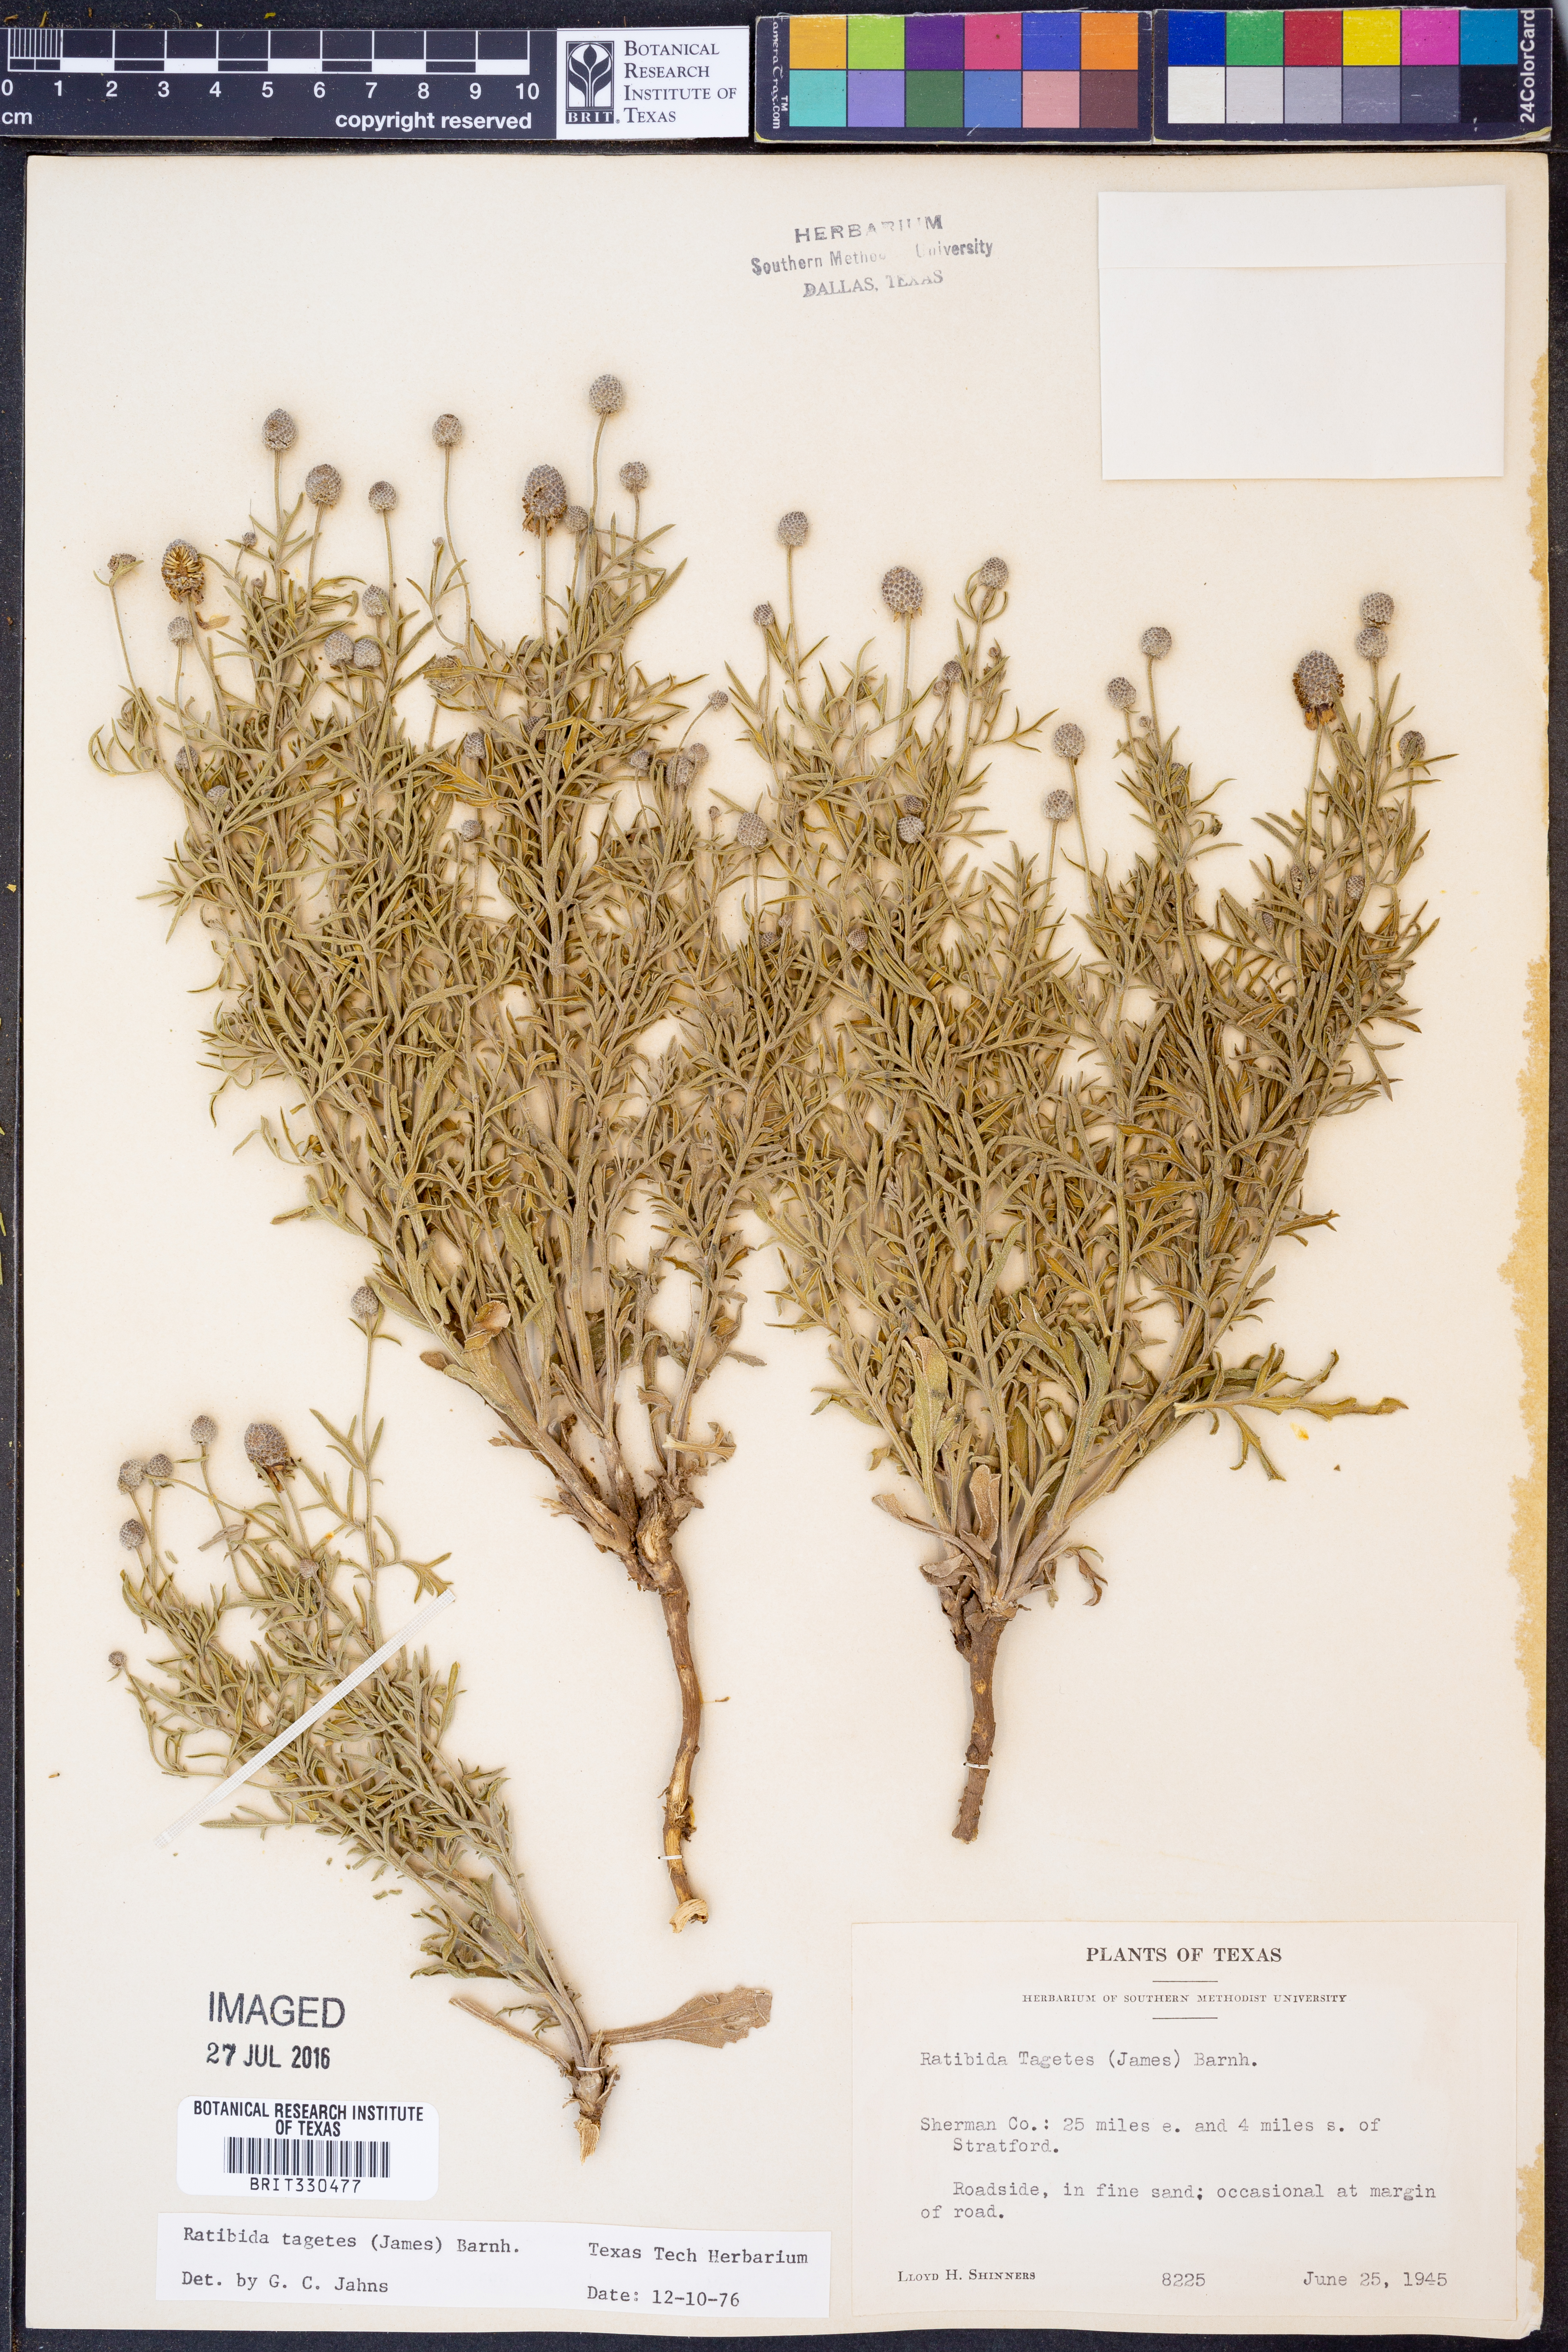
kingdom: Plantae
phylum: Tracheophyta
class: Magnoliopsida
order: Asterales
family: Asteraceae
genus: Ratibida
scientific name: Ratibida tagetes
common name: Green mexican-hat
